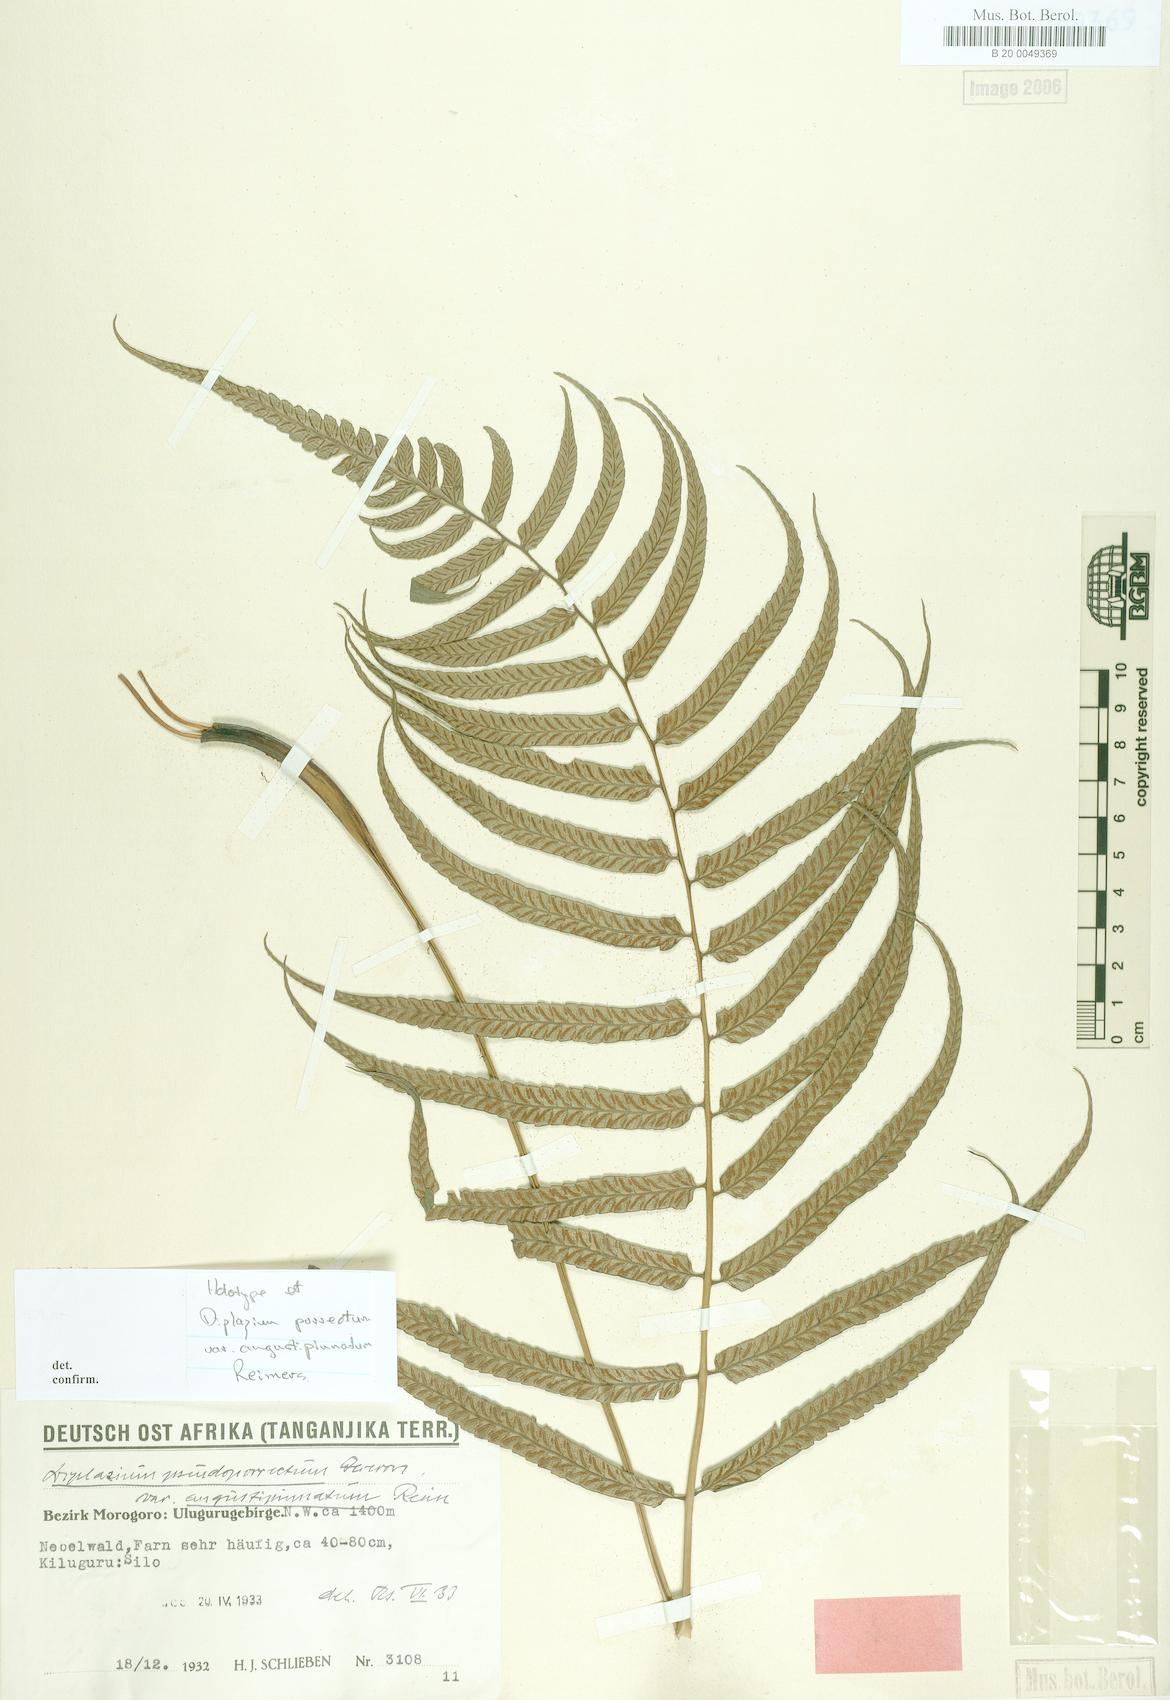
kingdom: Plantae
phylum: Tracheophyta
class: Polypodiopsida
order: Polypodiales
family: Athyriaceae
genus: Diplazium
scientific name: Diplazium pallidum
